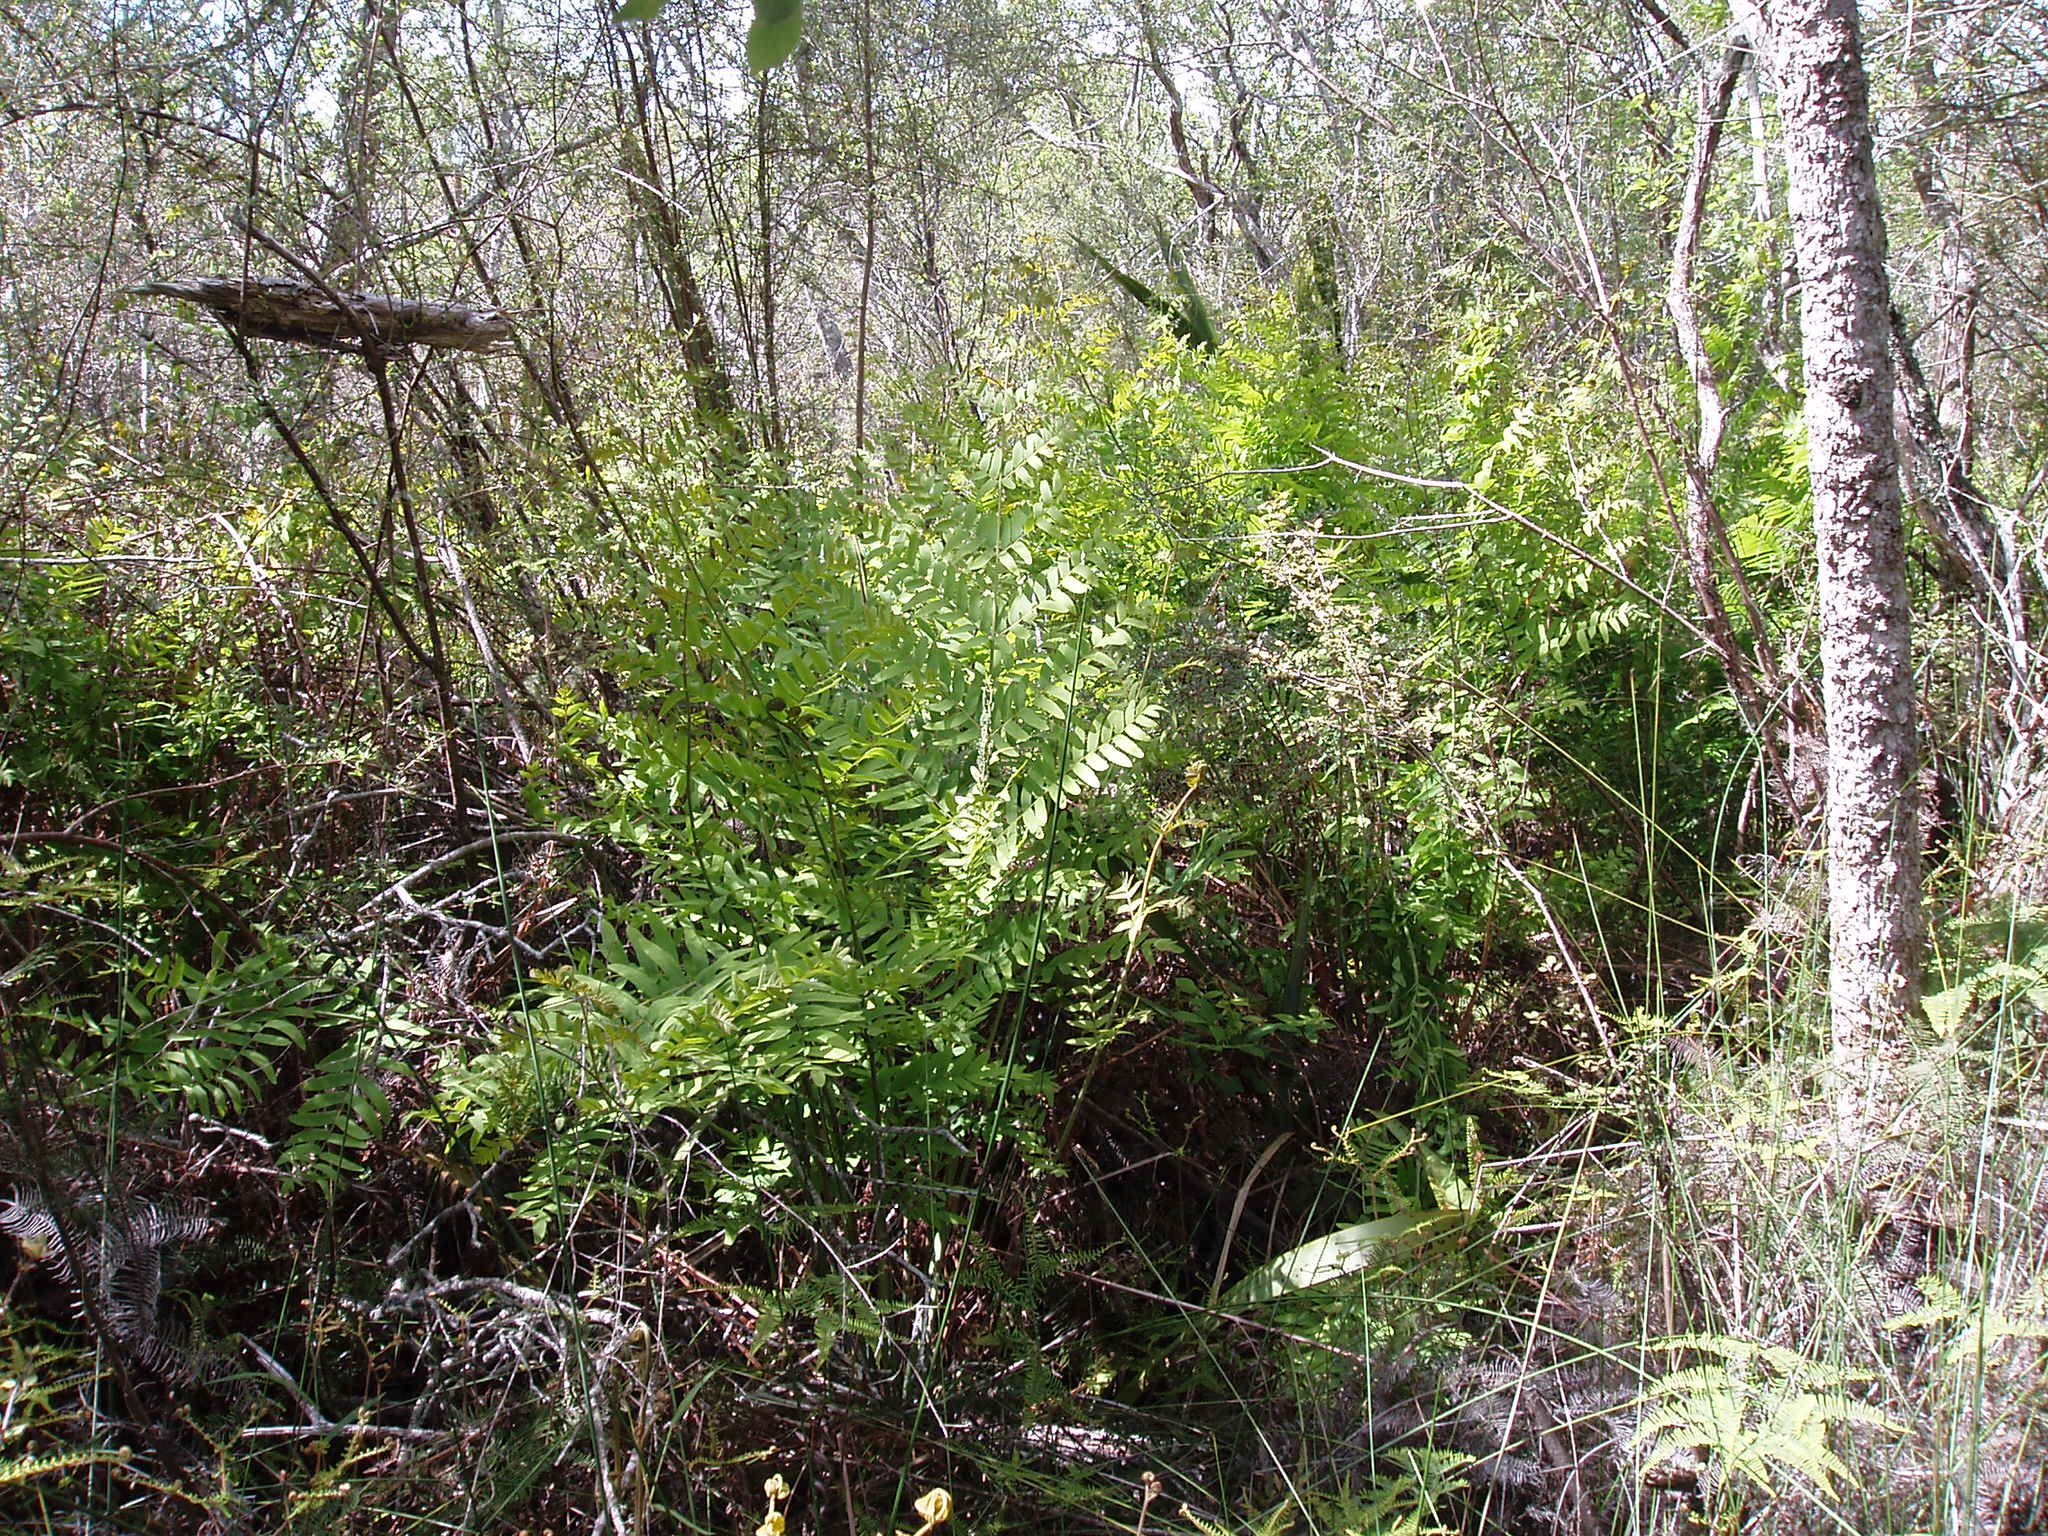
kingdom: Plantae
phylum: Tracheophyta
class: Polypodiopsida
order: Osmundales
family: Osmundaceae
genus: Osmunda
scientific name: Osmunda regalis
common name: Royal fern
